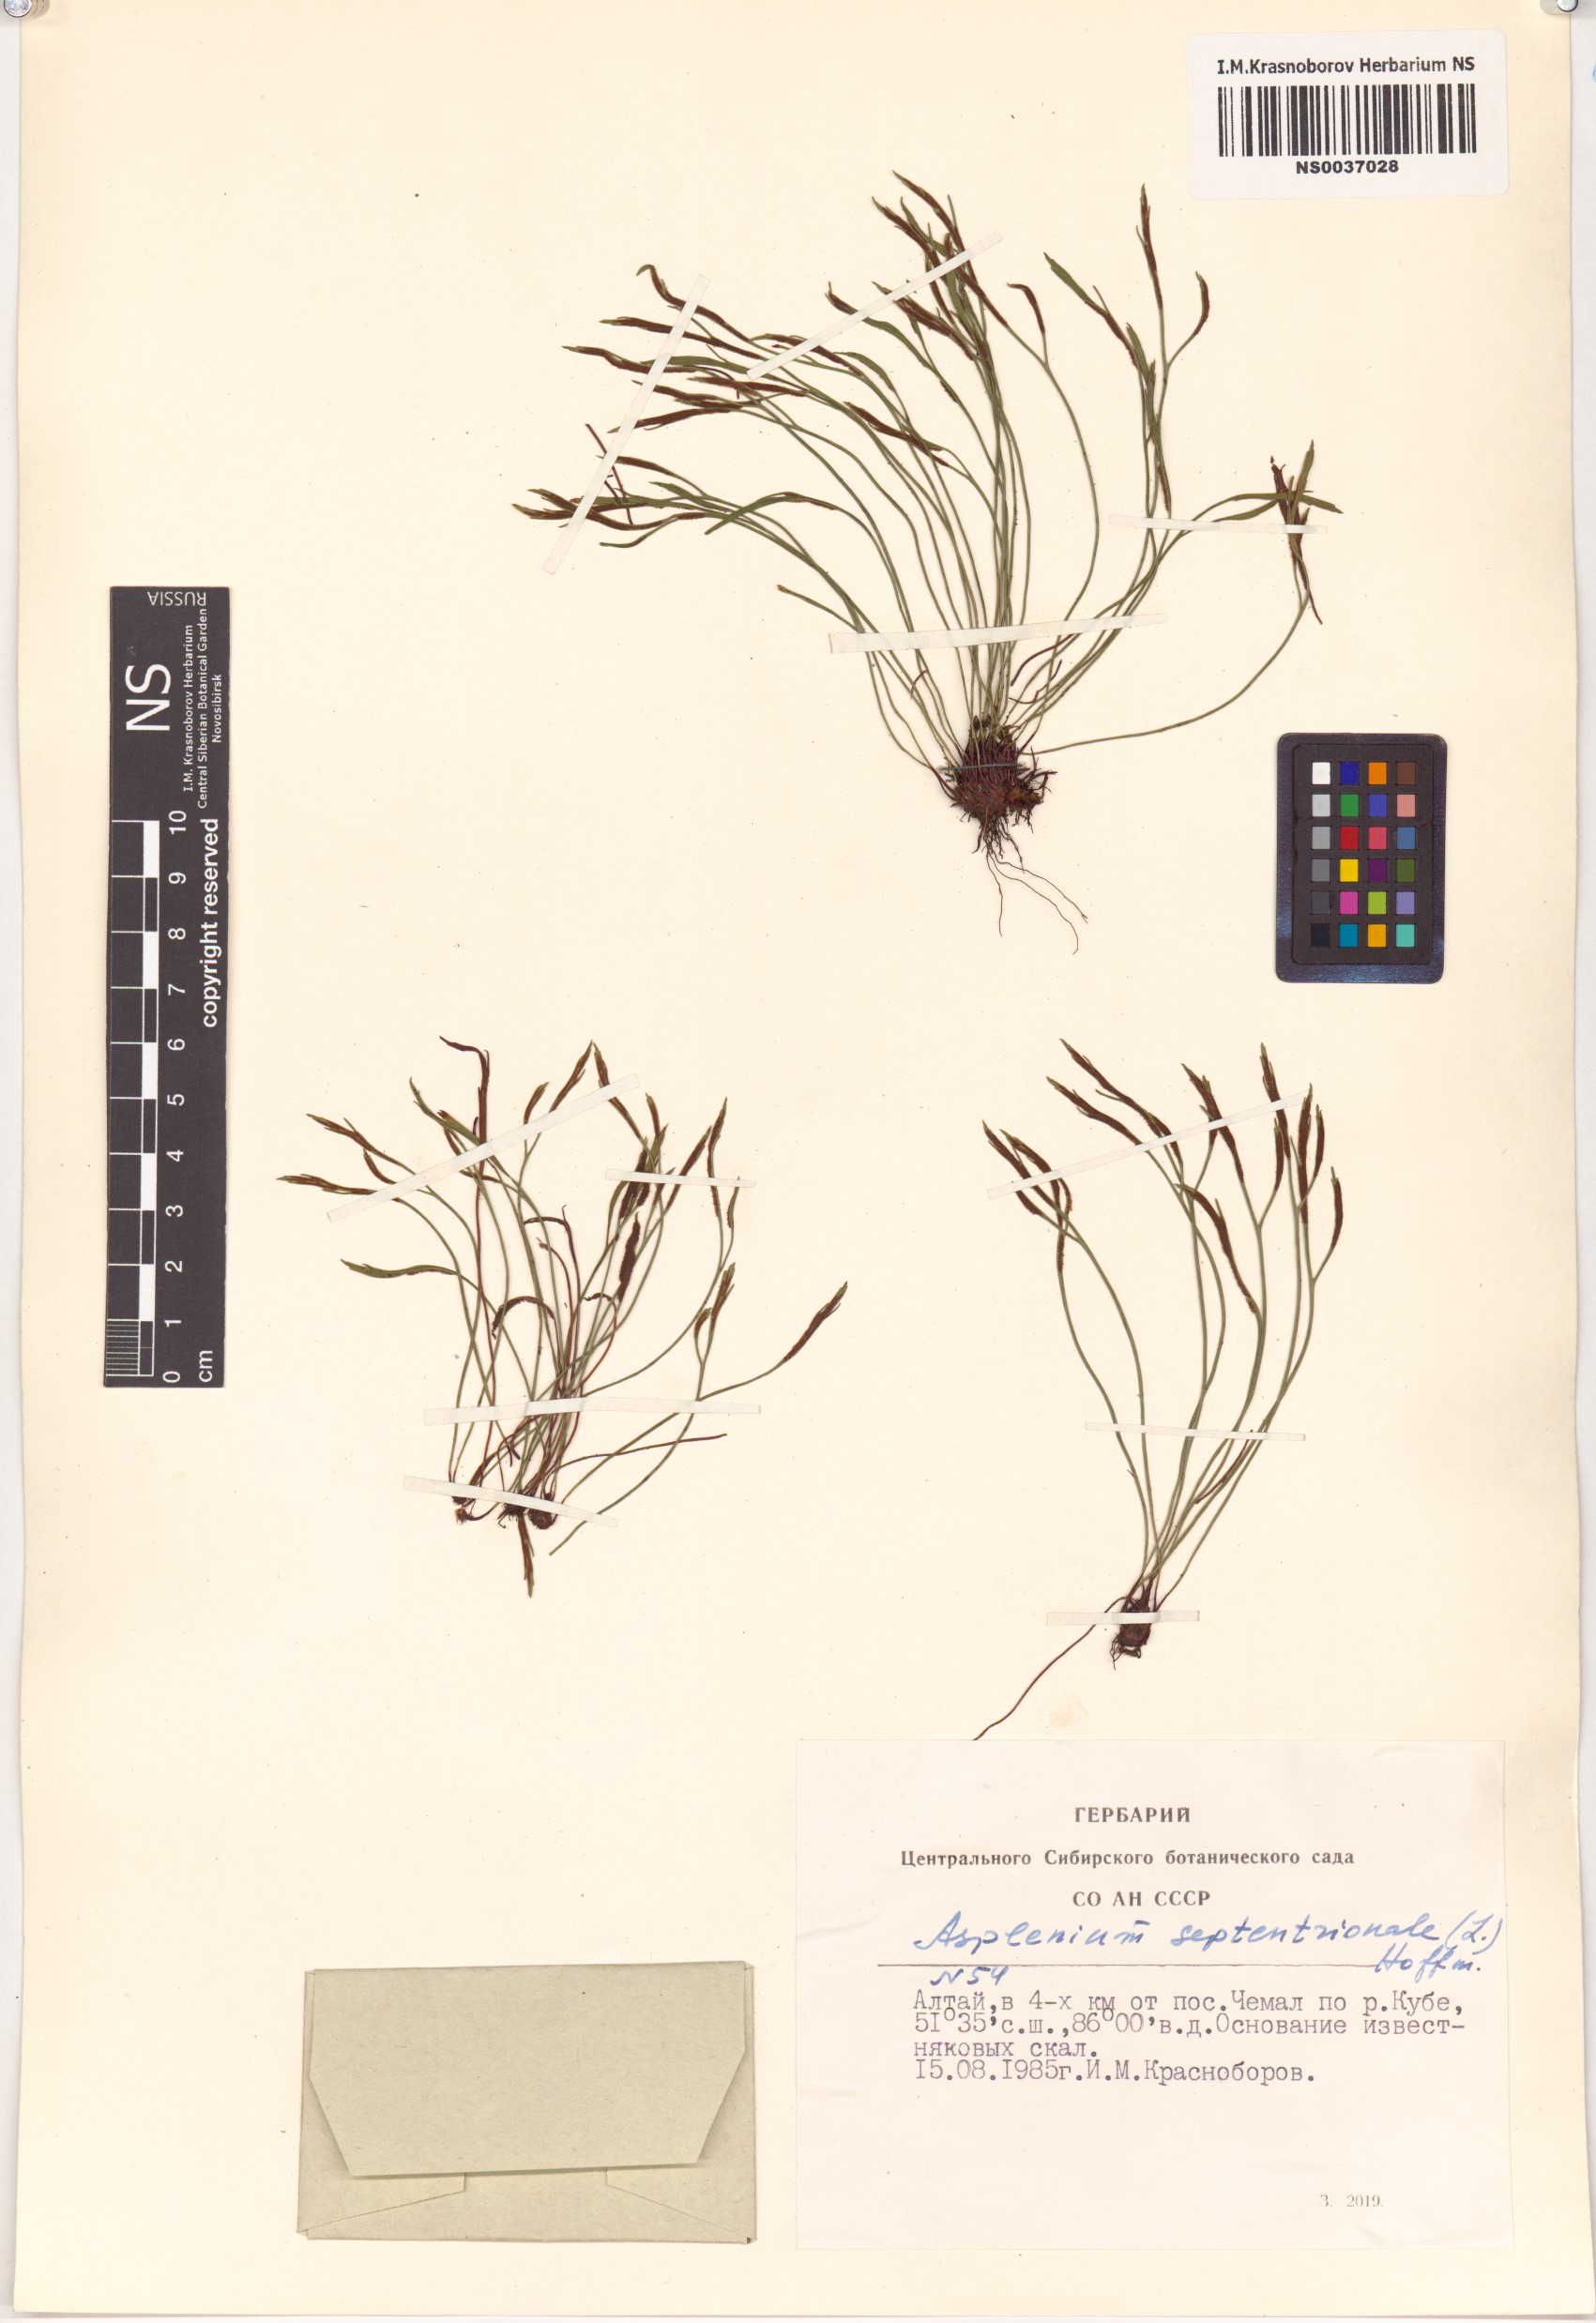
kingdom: Plantae
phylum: Tracheophyta
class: Polypodiopsida
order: Polypodiales
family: Aspleniaceae
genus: Asplenium
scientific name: Asplenium septentrionale
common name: Forked spleenwort
